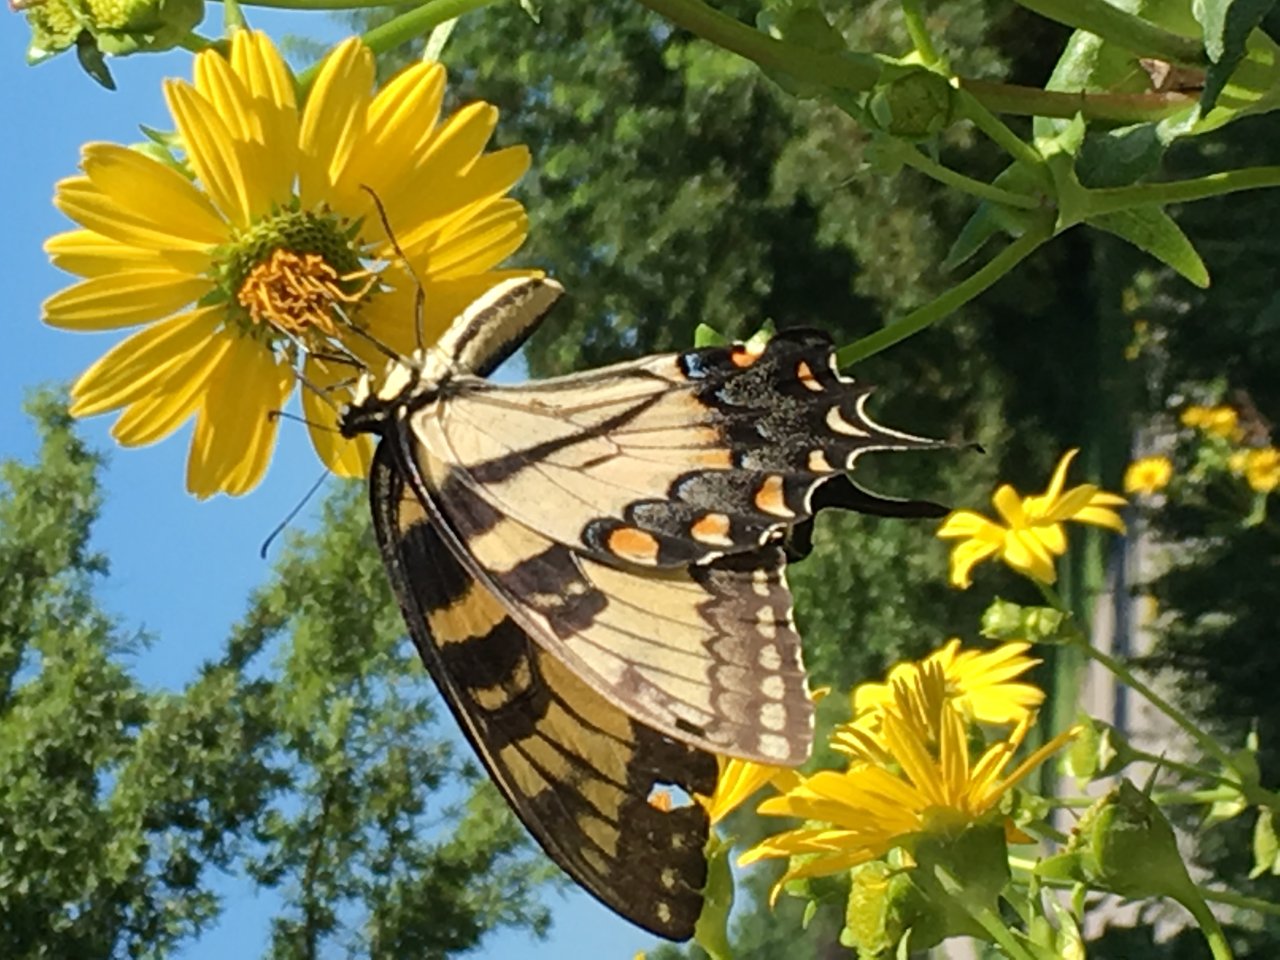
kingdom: Animalia
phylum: Arthropoda
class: Insecta
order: Lepidoptera
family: Papilionidae
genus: Pterourus
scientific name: Pterourus glaucus
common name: Eastern Tiger Swallowtail
